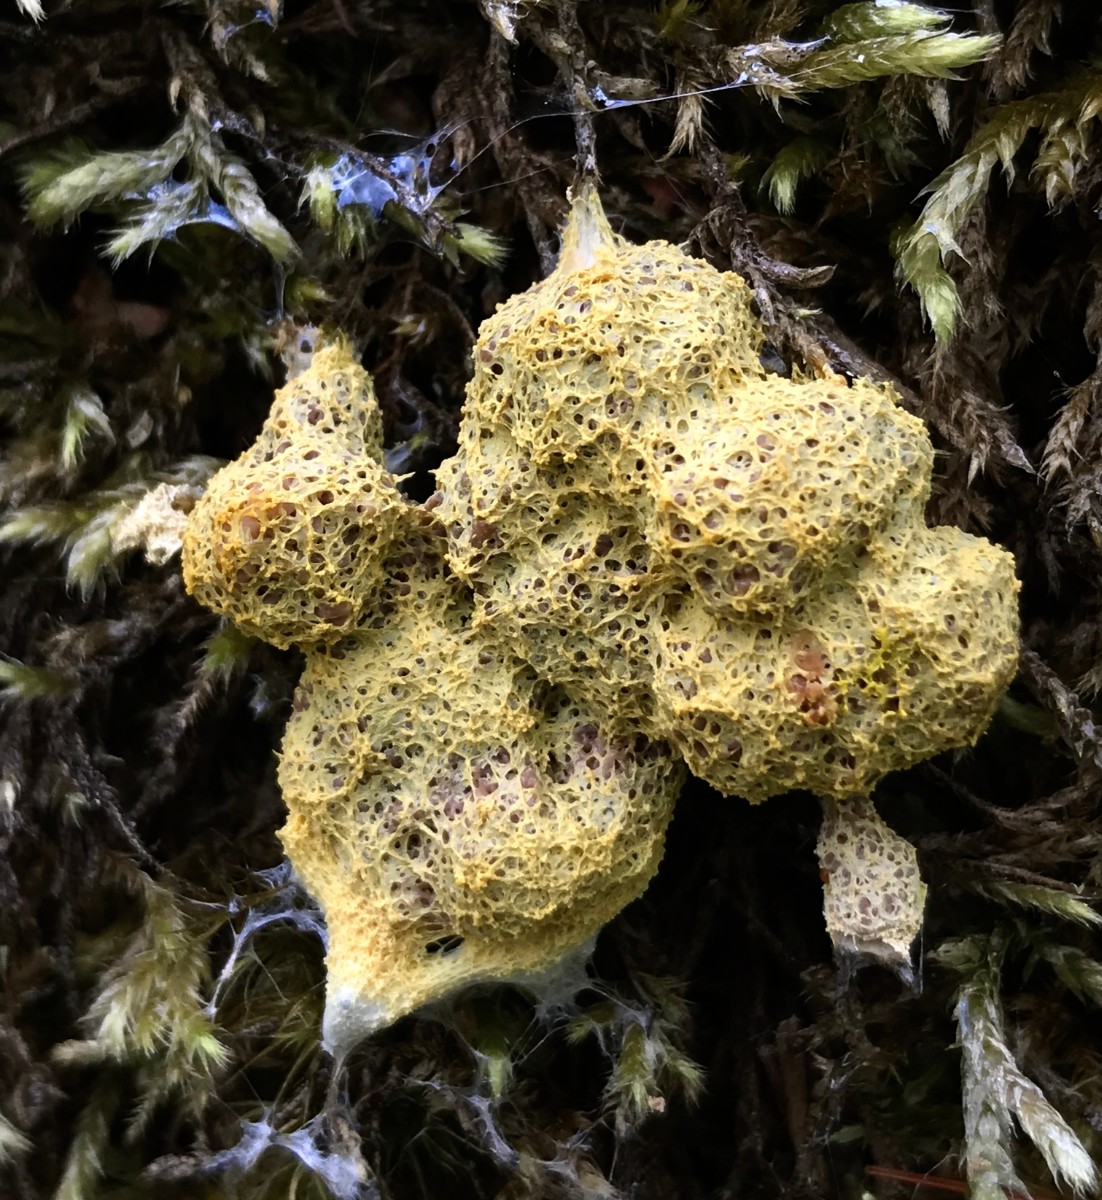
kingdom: Protozoa
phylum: Mycetozoa
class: Myxomycetes
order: Physarales
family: Physaraceae
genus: Fuligo
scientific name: Fuligo septica
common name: gul troldsmør
